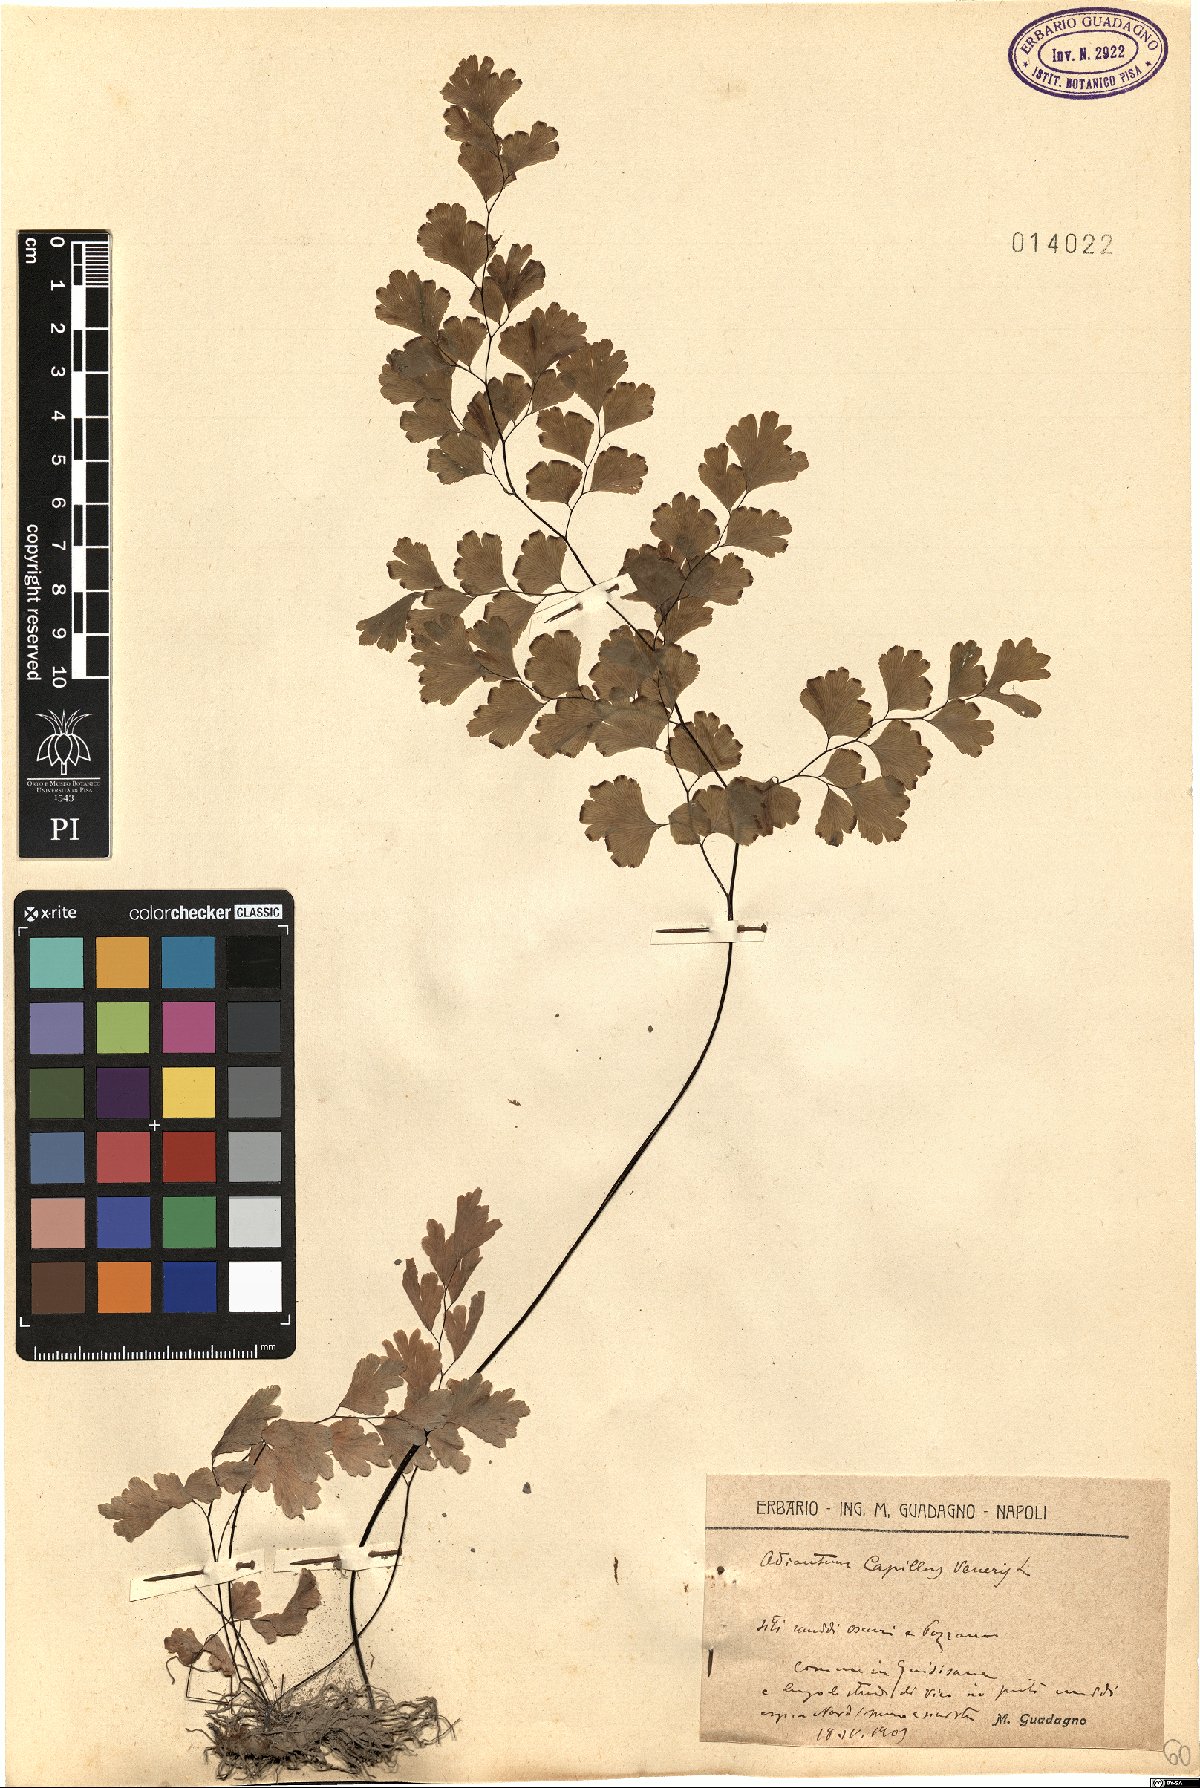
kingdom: Plantae
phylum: Tracheophyta
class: Polypodiopsida
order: Polypodiales
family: Pteridaceae
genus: Adiantum
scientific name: Adiantum capillus-veneris
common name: Maidenhair fern
